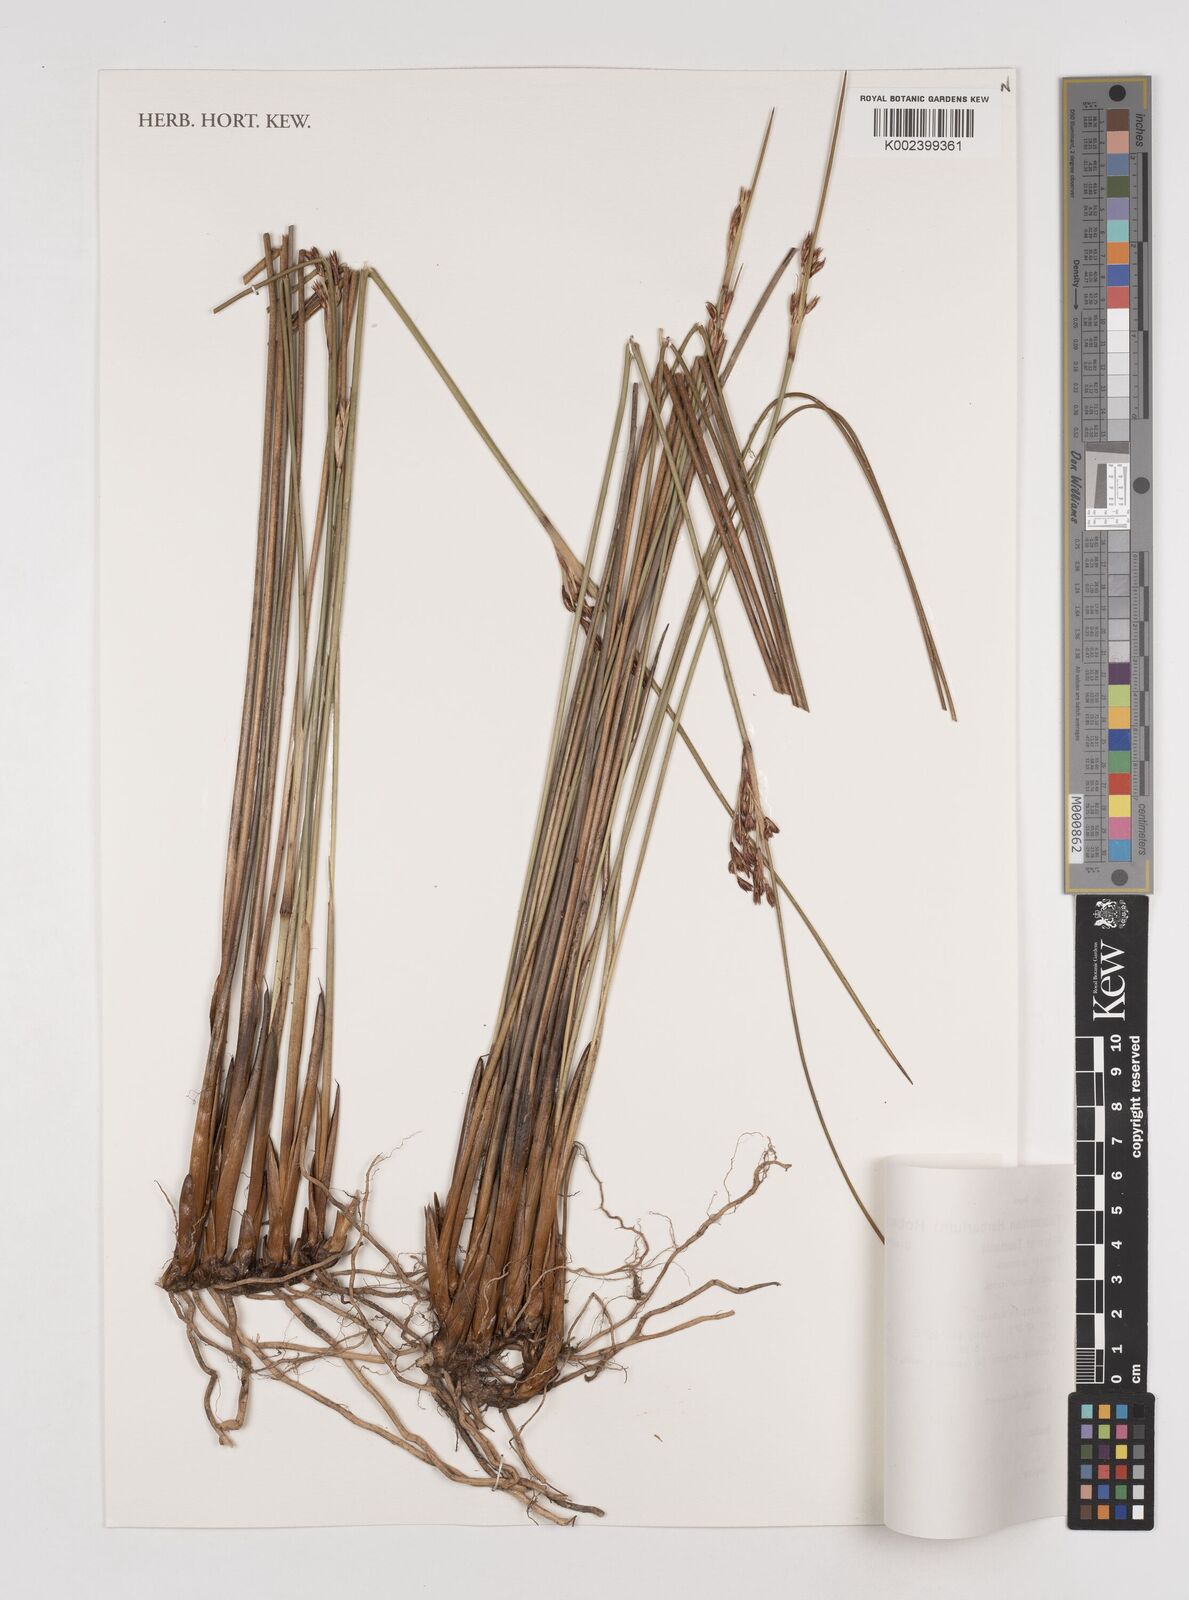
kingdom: Plantae
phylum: Tracheophyta
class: Liliopsida
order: Poales
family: Juncaceae
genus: Juncus
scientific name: Juncus kraussii
